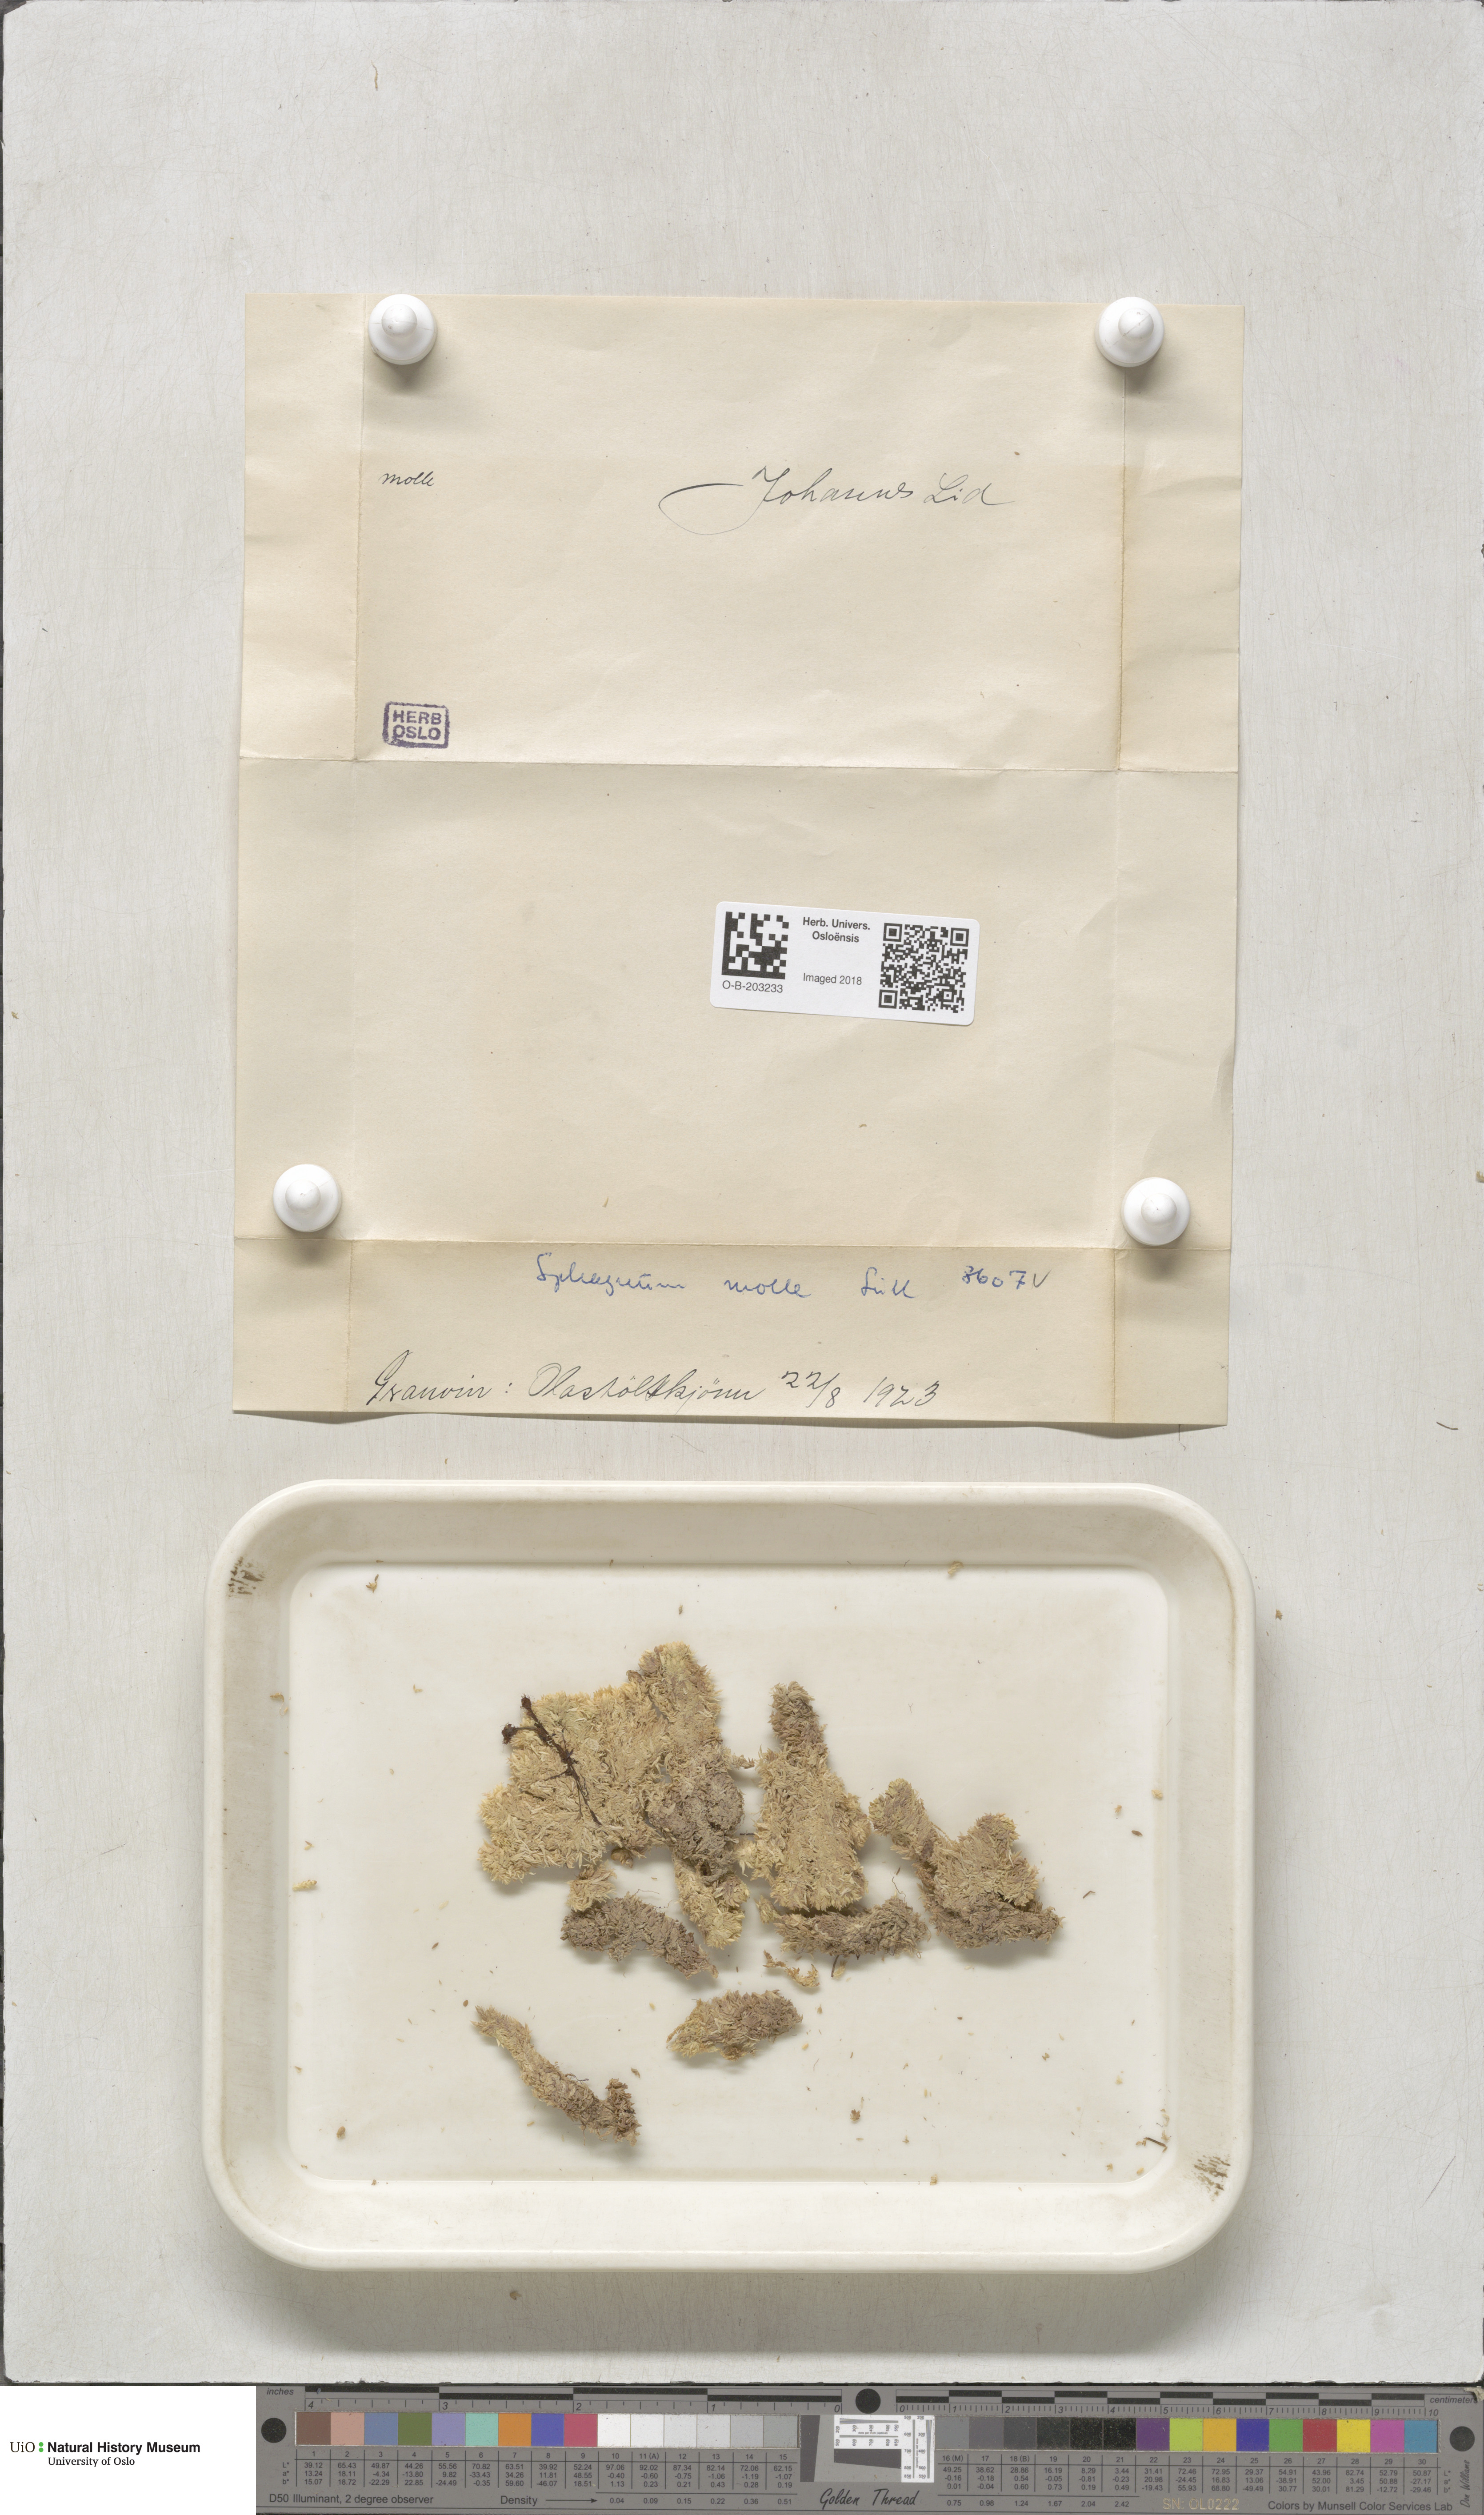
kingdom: Plantae
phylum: Bryophyta
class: Sphagnopsida
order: Sphagnales
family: Sphagnaceae
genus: Sphagnum
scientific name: Sphagnum molle
